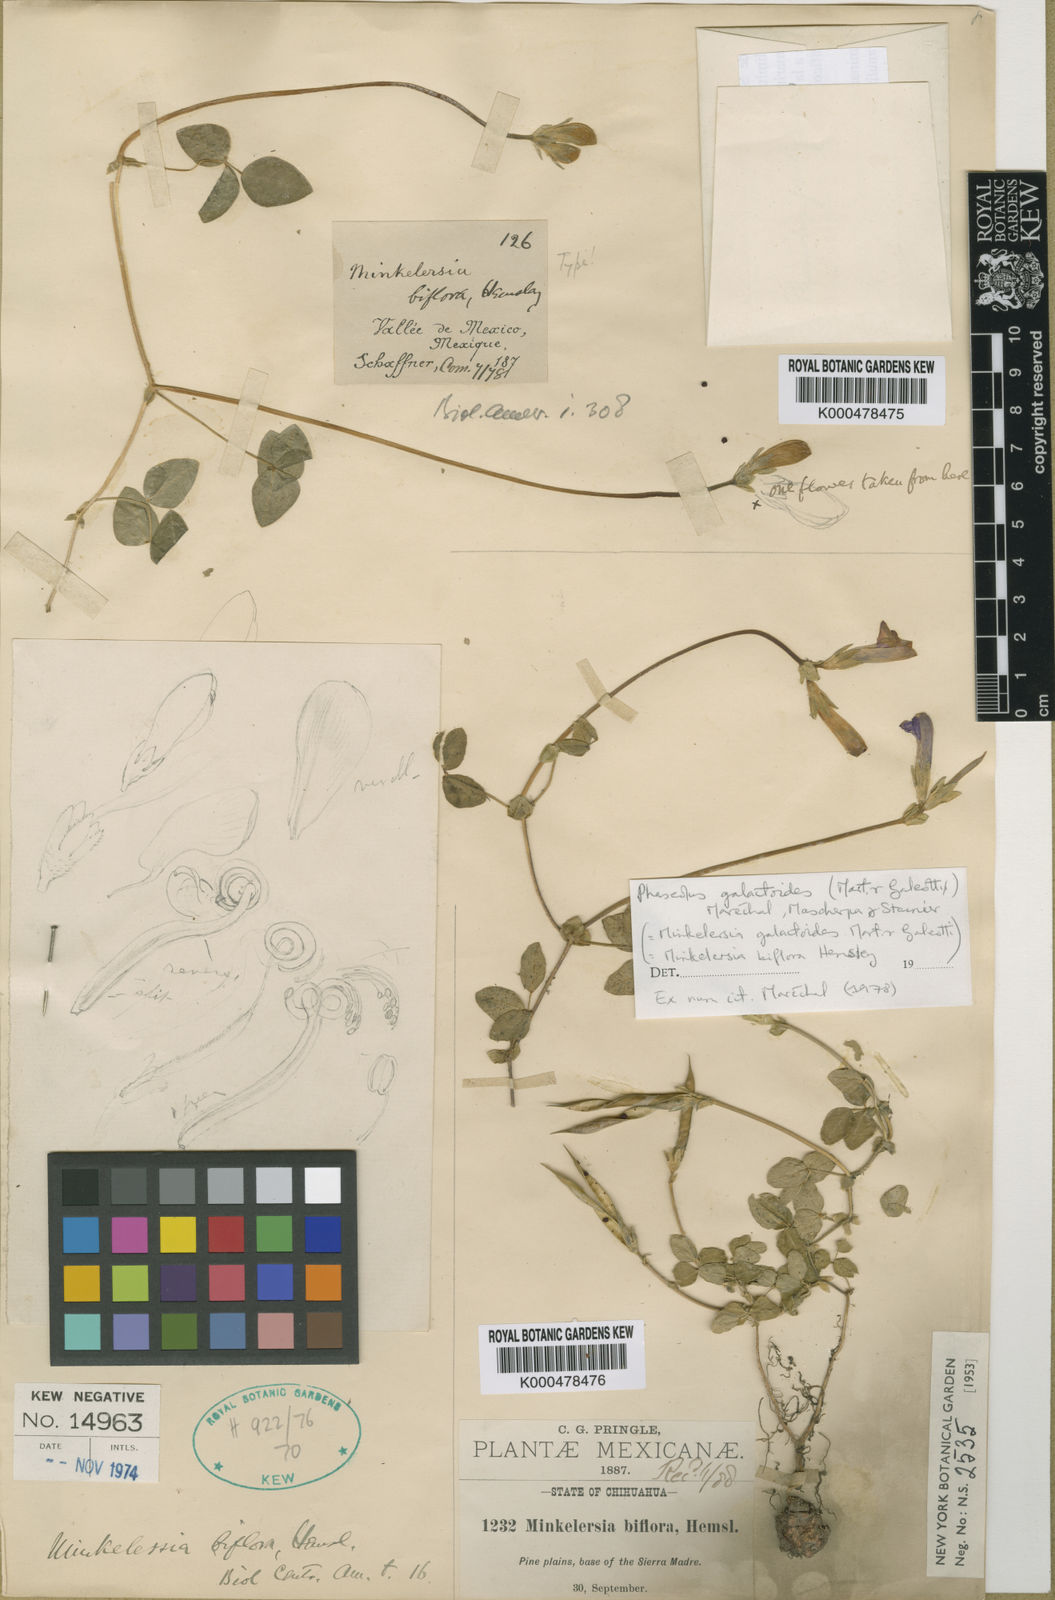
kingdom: Plantae
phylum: Tracheophyta
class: Magnoliopsida
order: Fabales
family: Fabaceae
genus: Phaseolus
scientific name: Phaseolus
